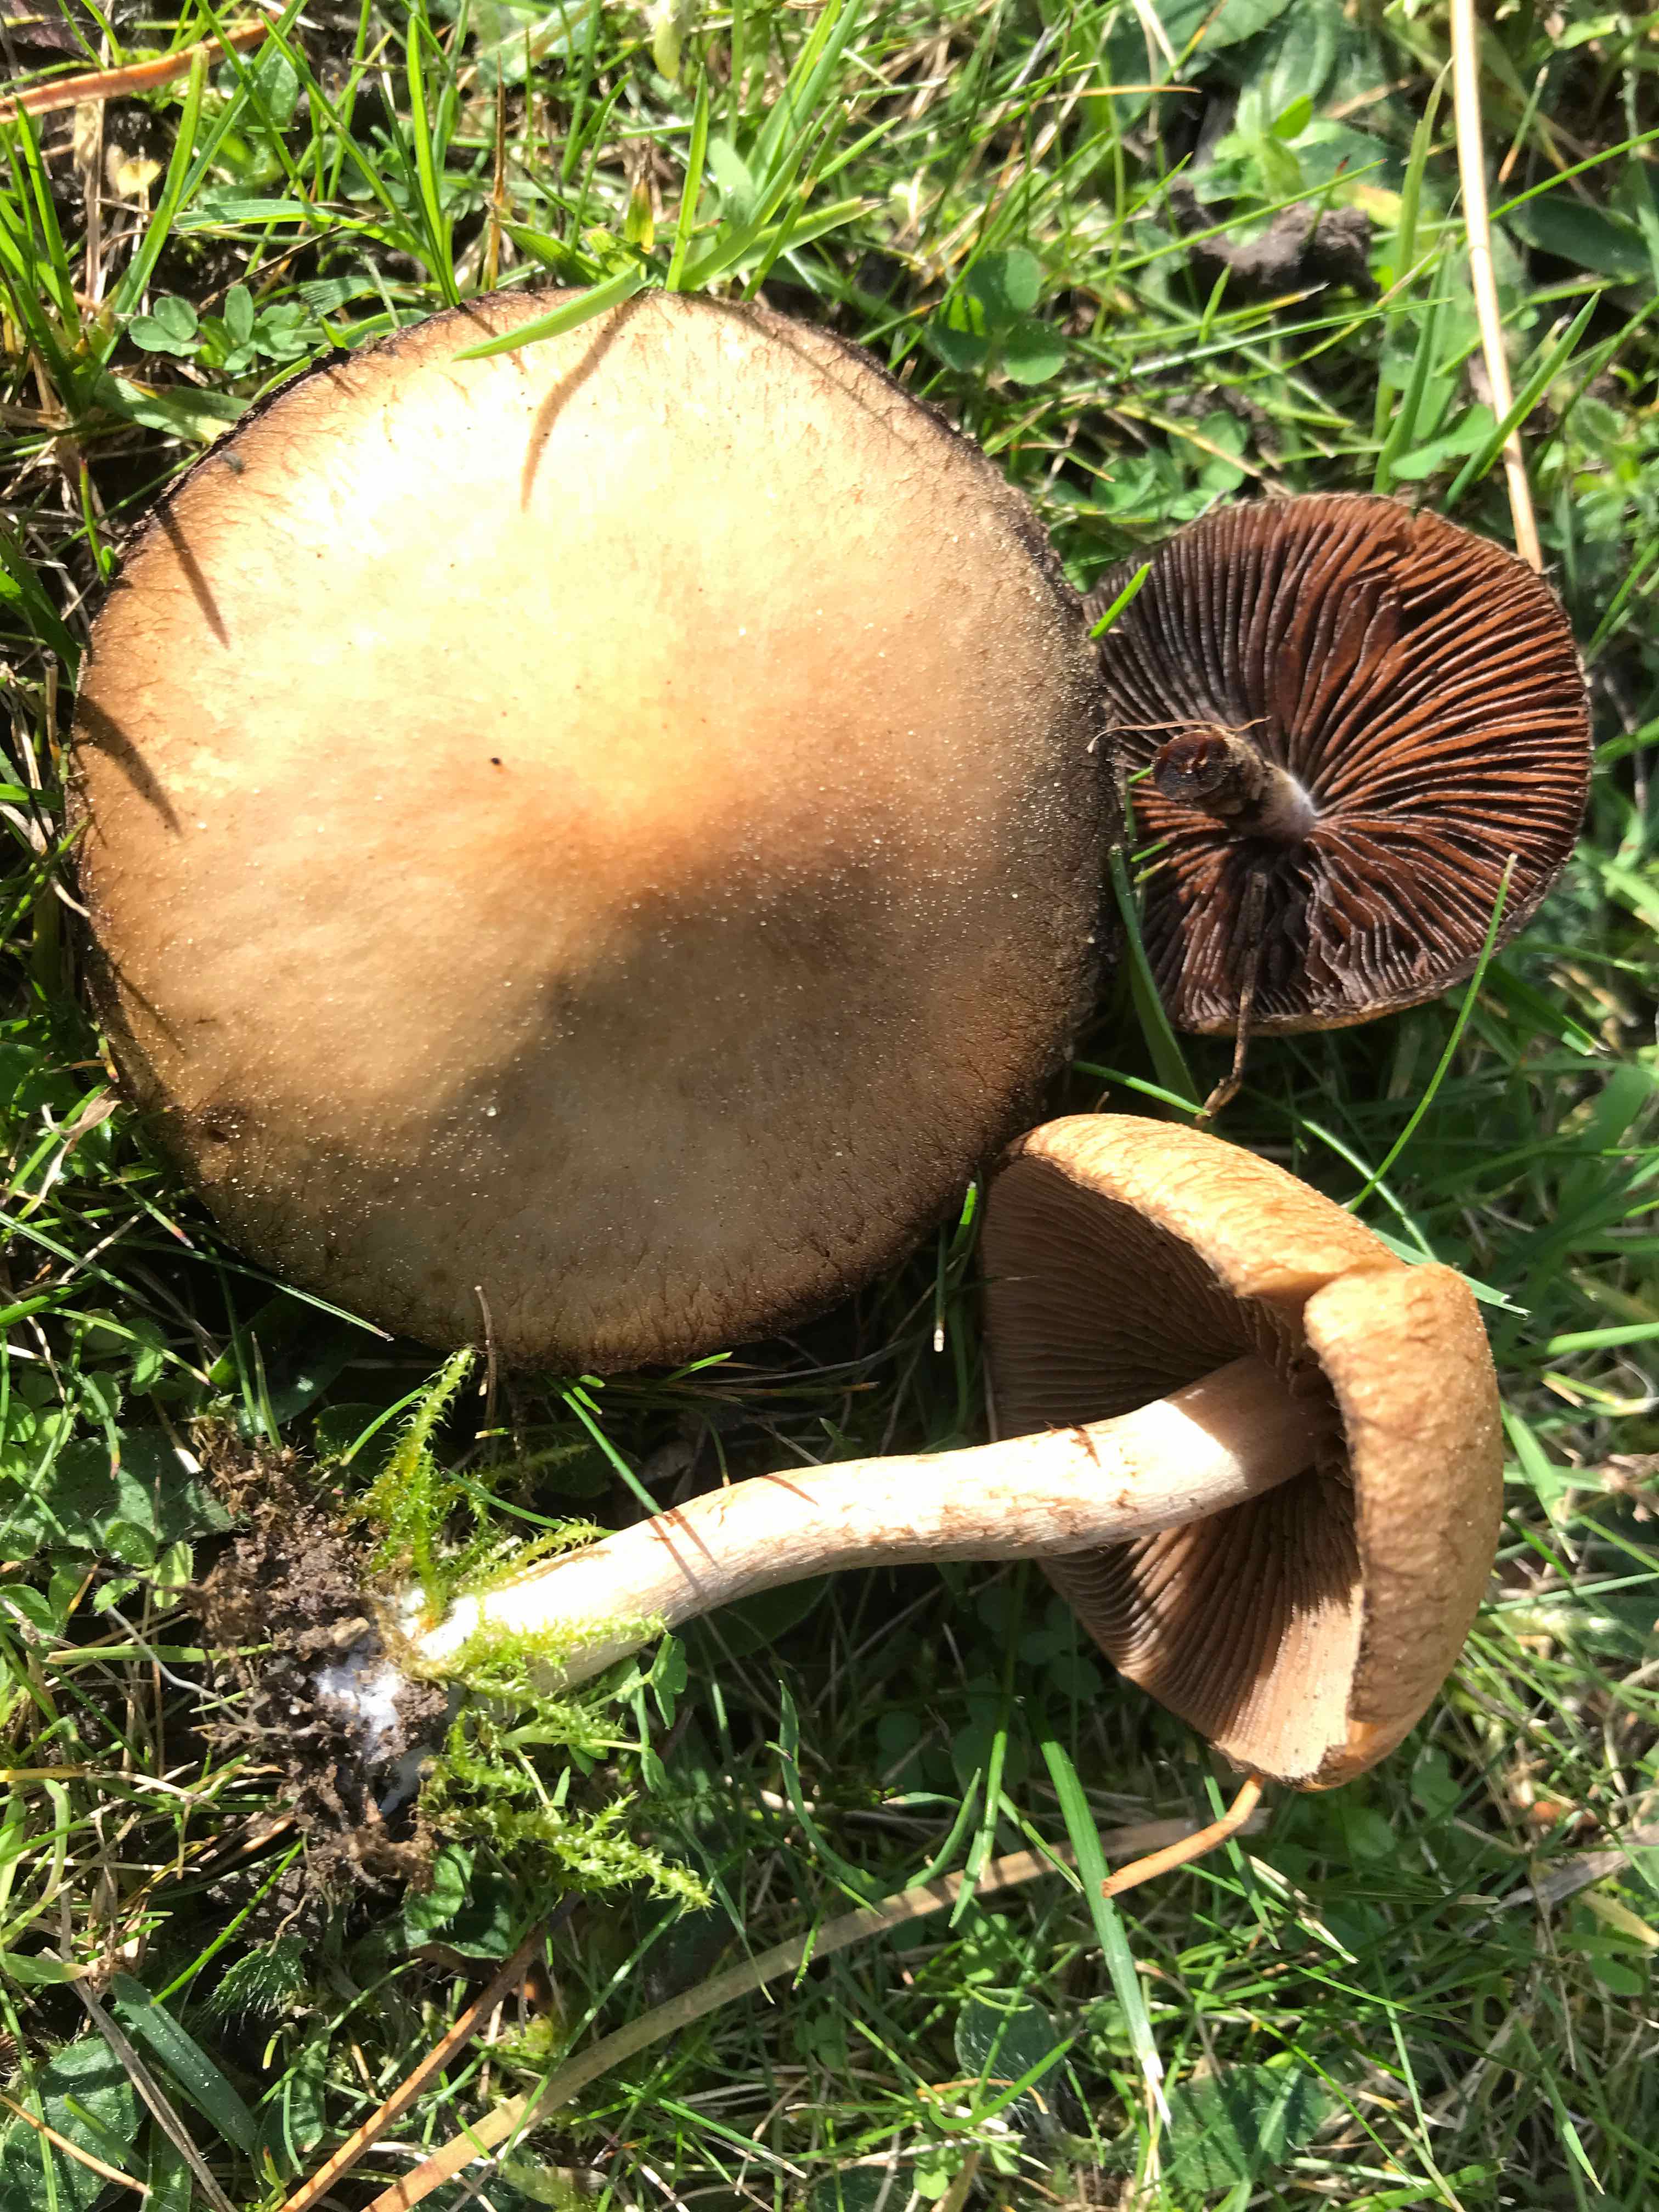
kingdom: Fungi
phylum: Basidiomycota
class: Agaricomycetes
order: Agaricales
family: Psathyrellaceae
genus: Lacrymaria
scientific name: Lacrymaria lacrymabunda
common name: grædende mørkhat
